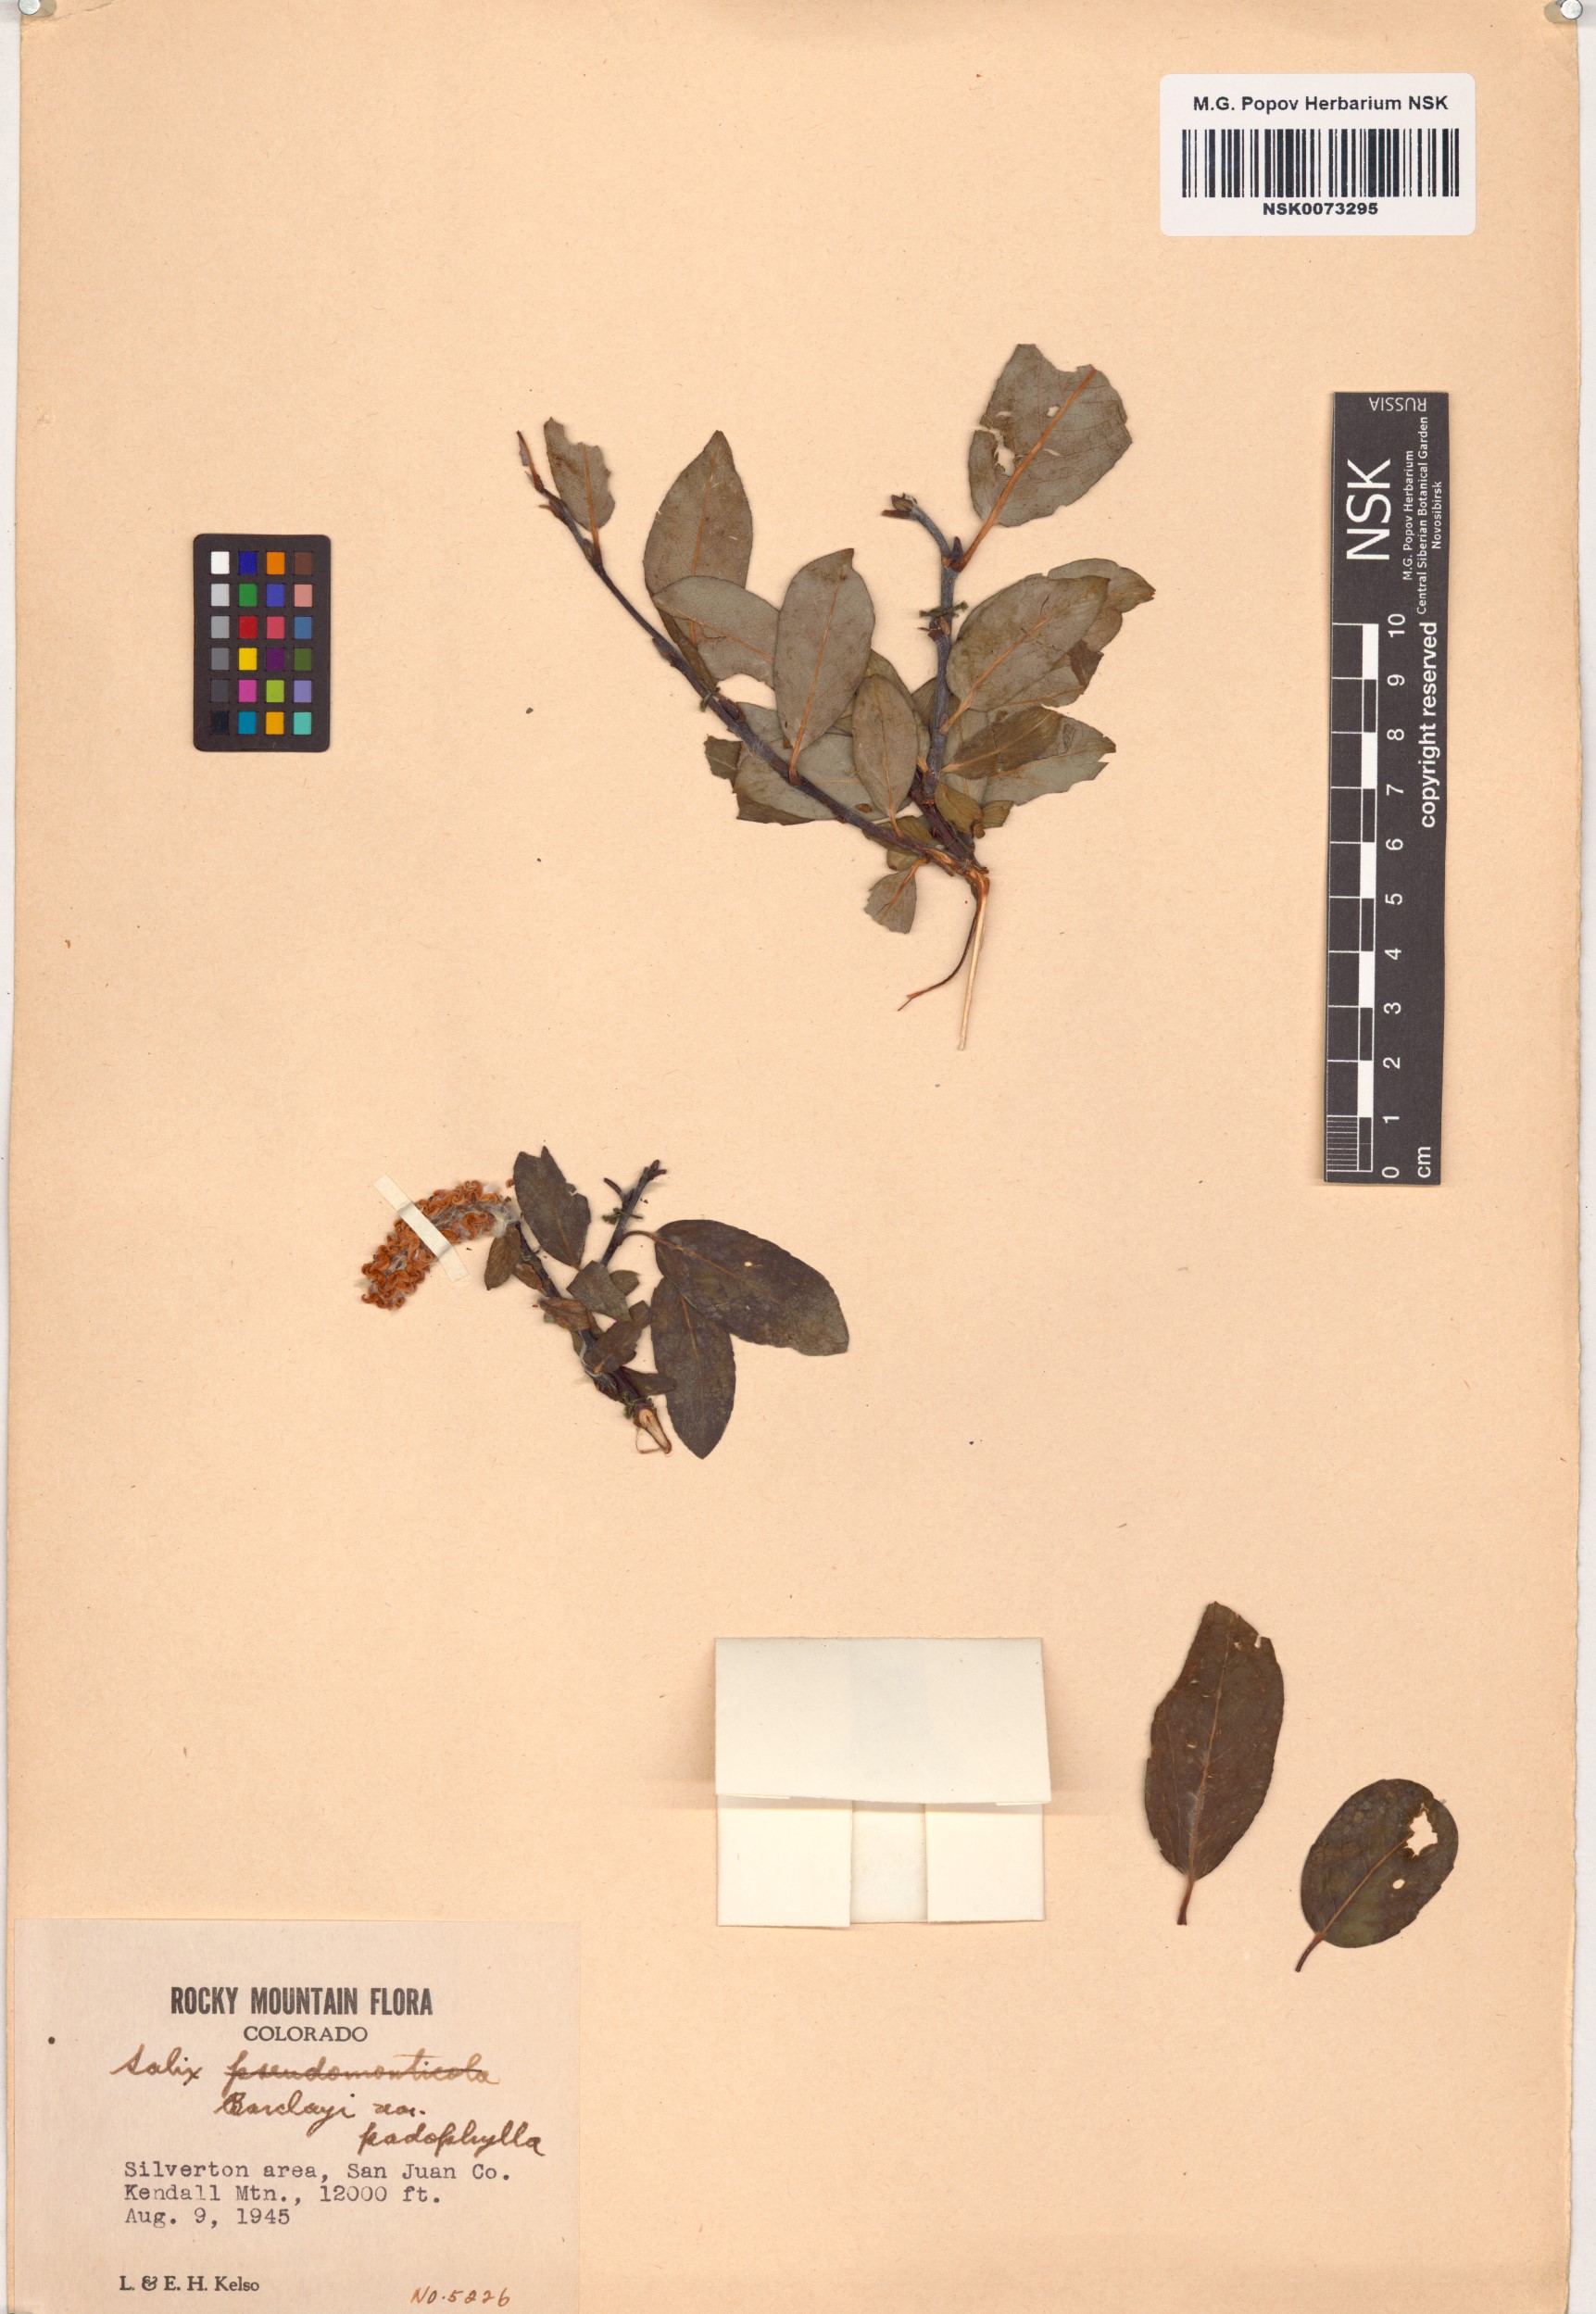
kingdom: Plantae
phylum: Tracheophyta
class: Magnoliopsida
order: Malpighiales
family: Salicaceae
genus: Salix
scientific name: Salix monticola
